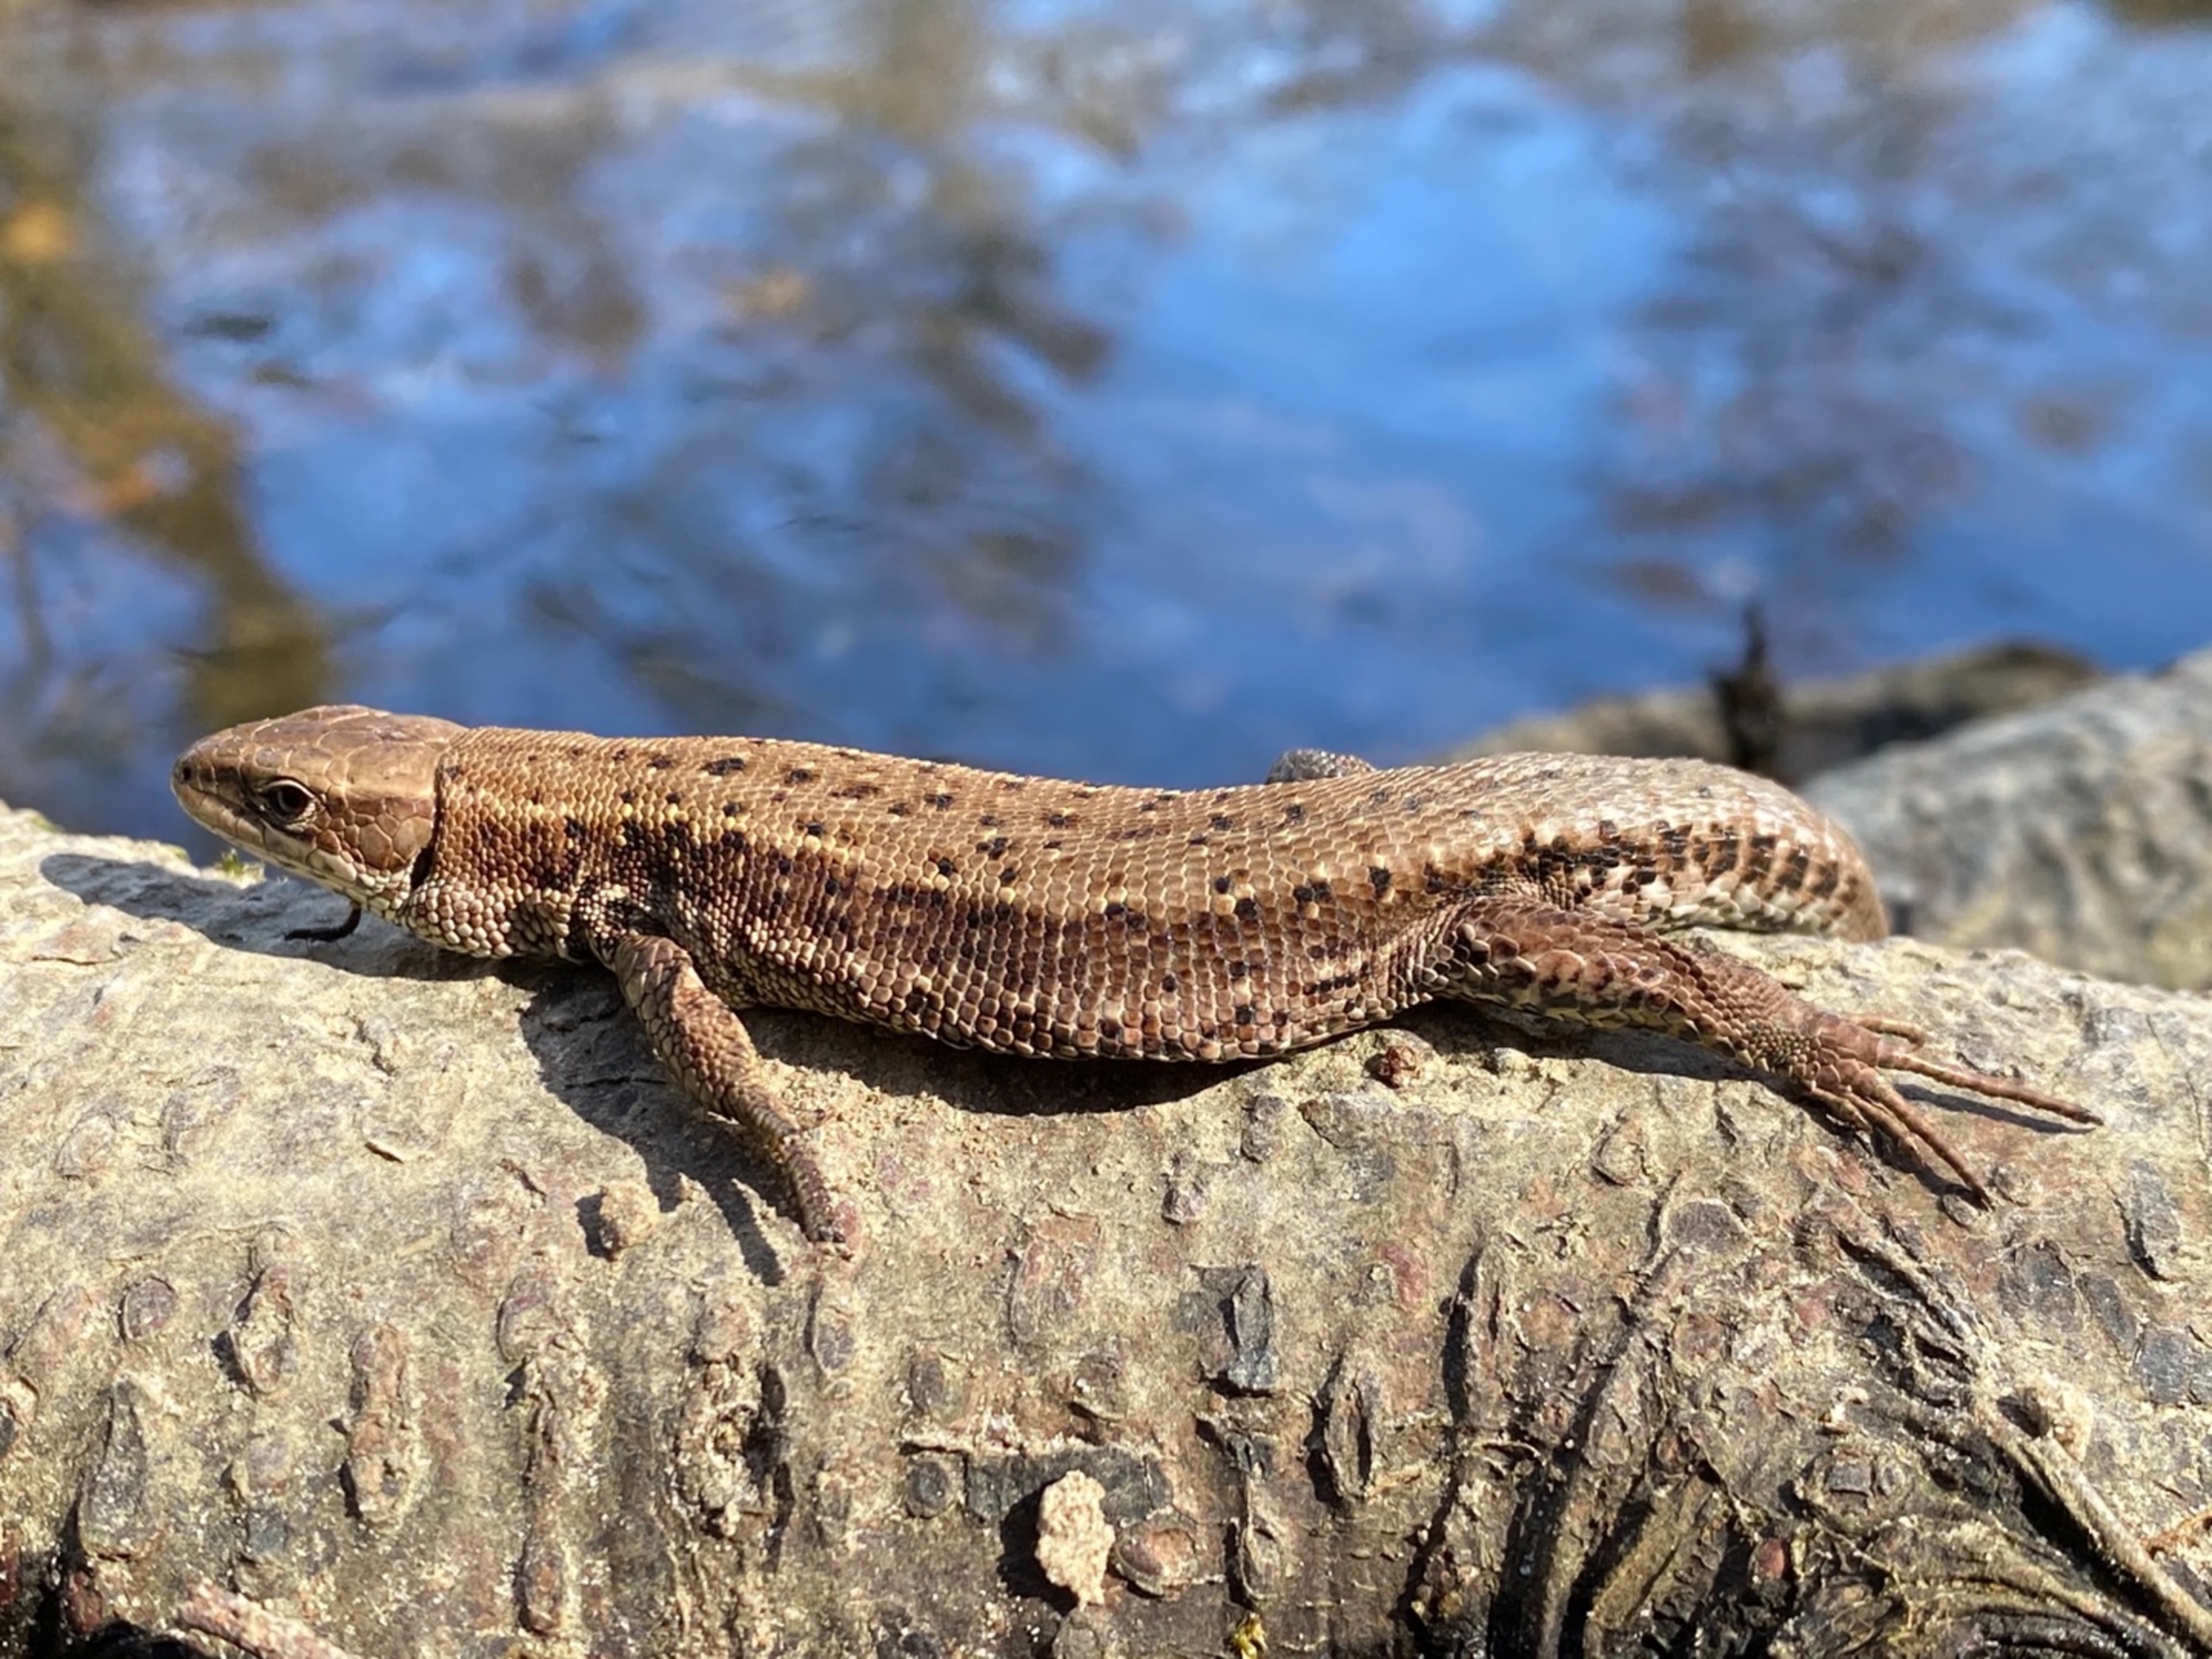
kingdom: Animalia
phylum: Chordata
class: Squamata
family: Lacertidae
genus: Zootoca
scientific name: Zootoca vivipara
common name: Skovfirben
